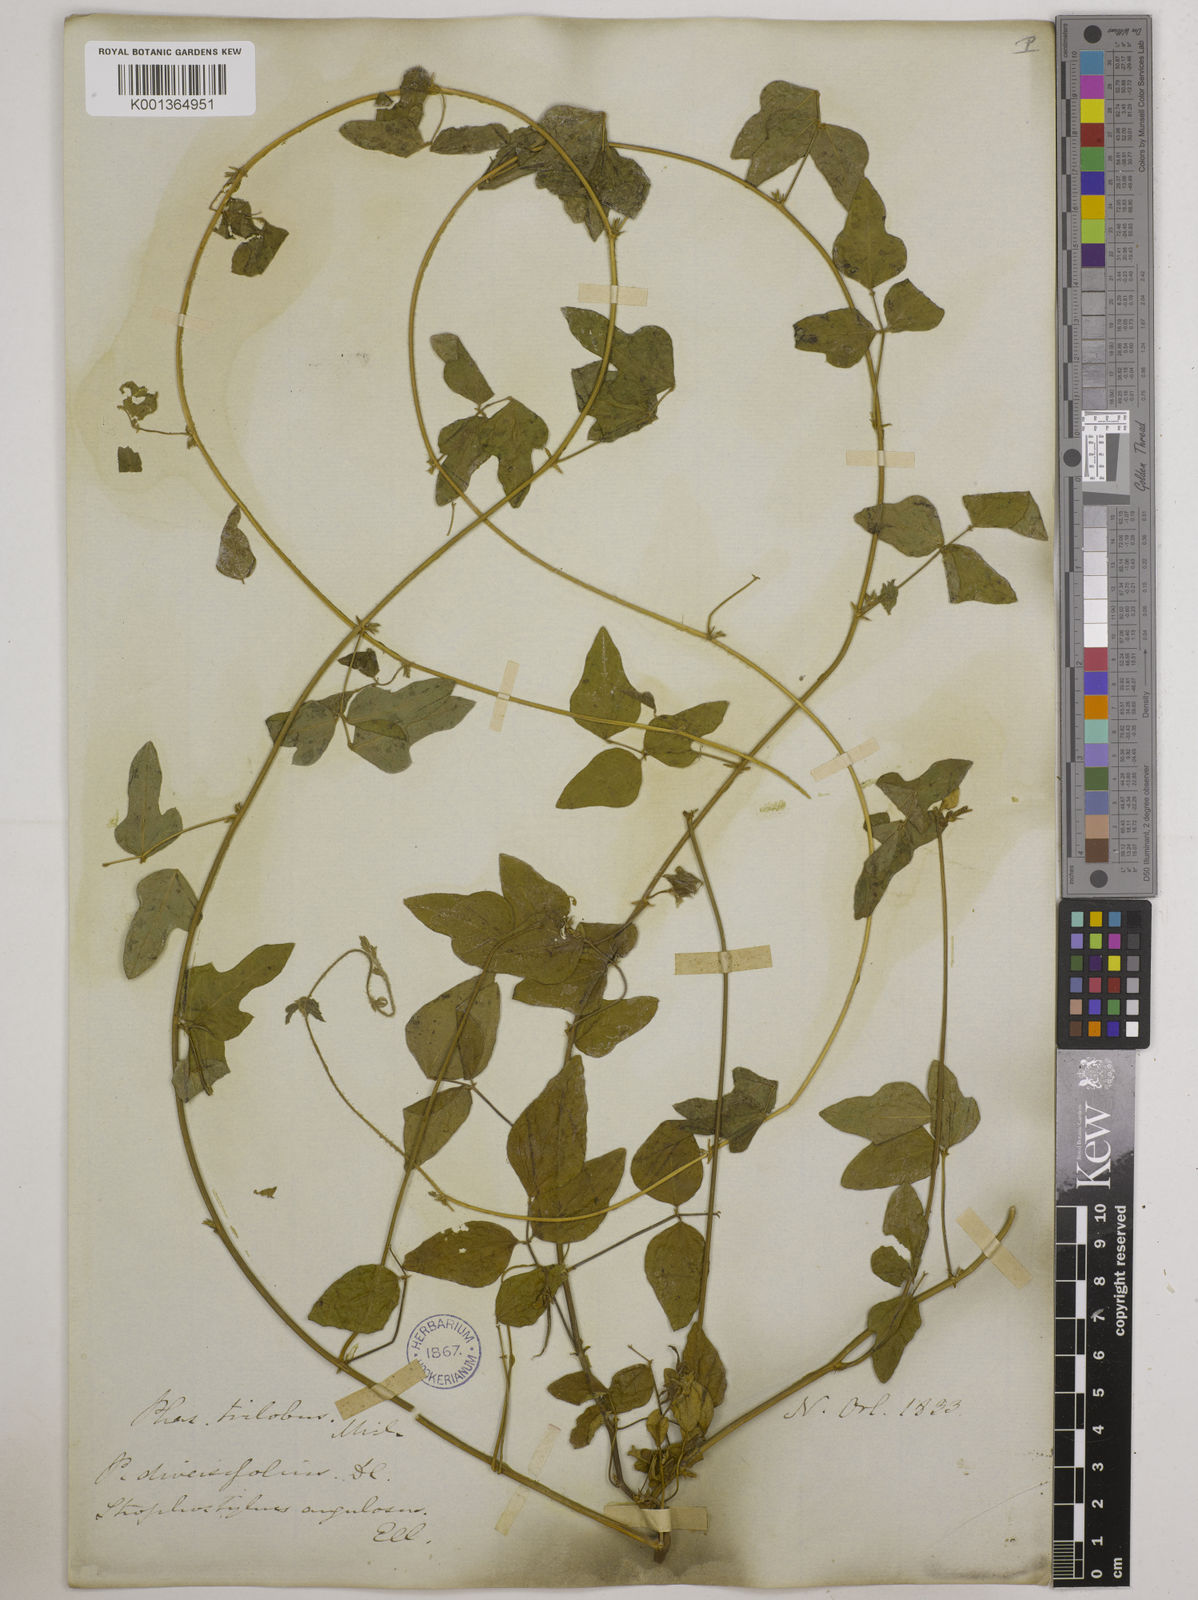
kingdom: Plantae
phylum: Tracheophyta
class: Magnoliopsida
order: Fabales
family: Fabaceae
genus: Strophostyles
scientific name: Strophostyles
